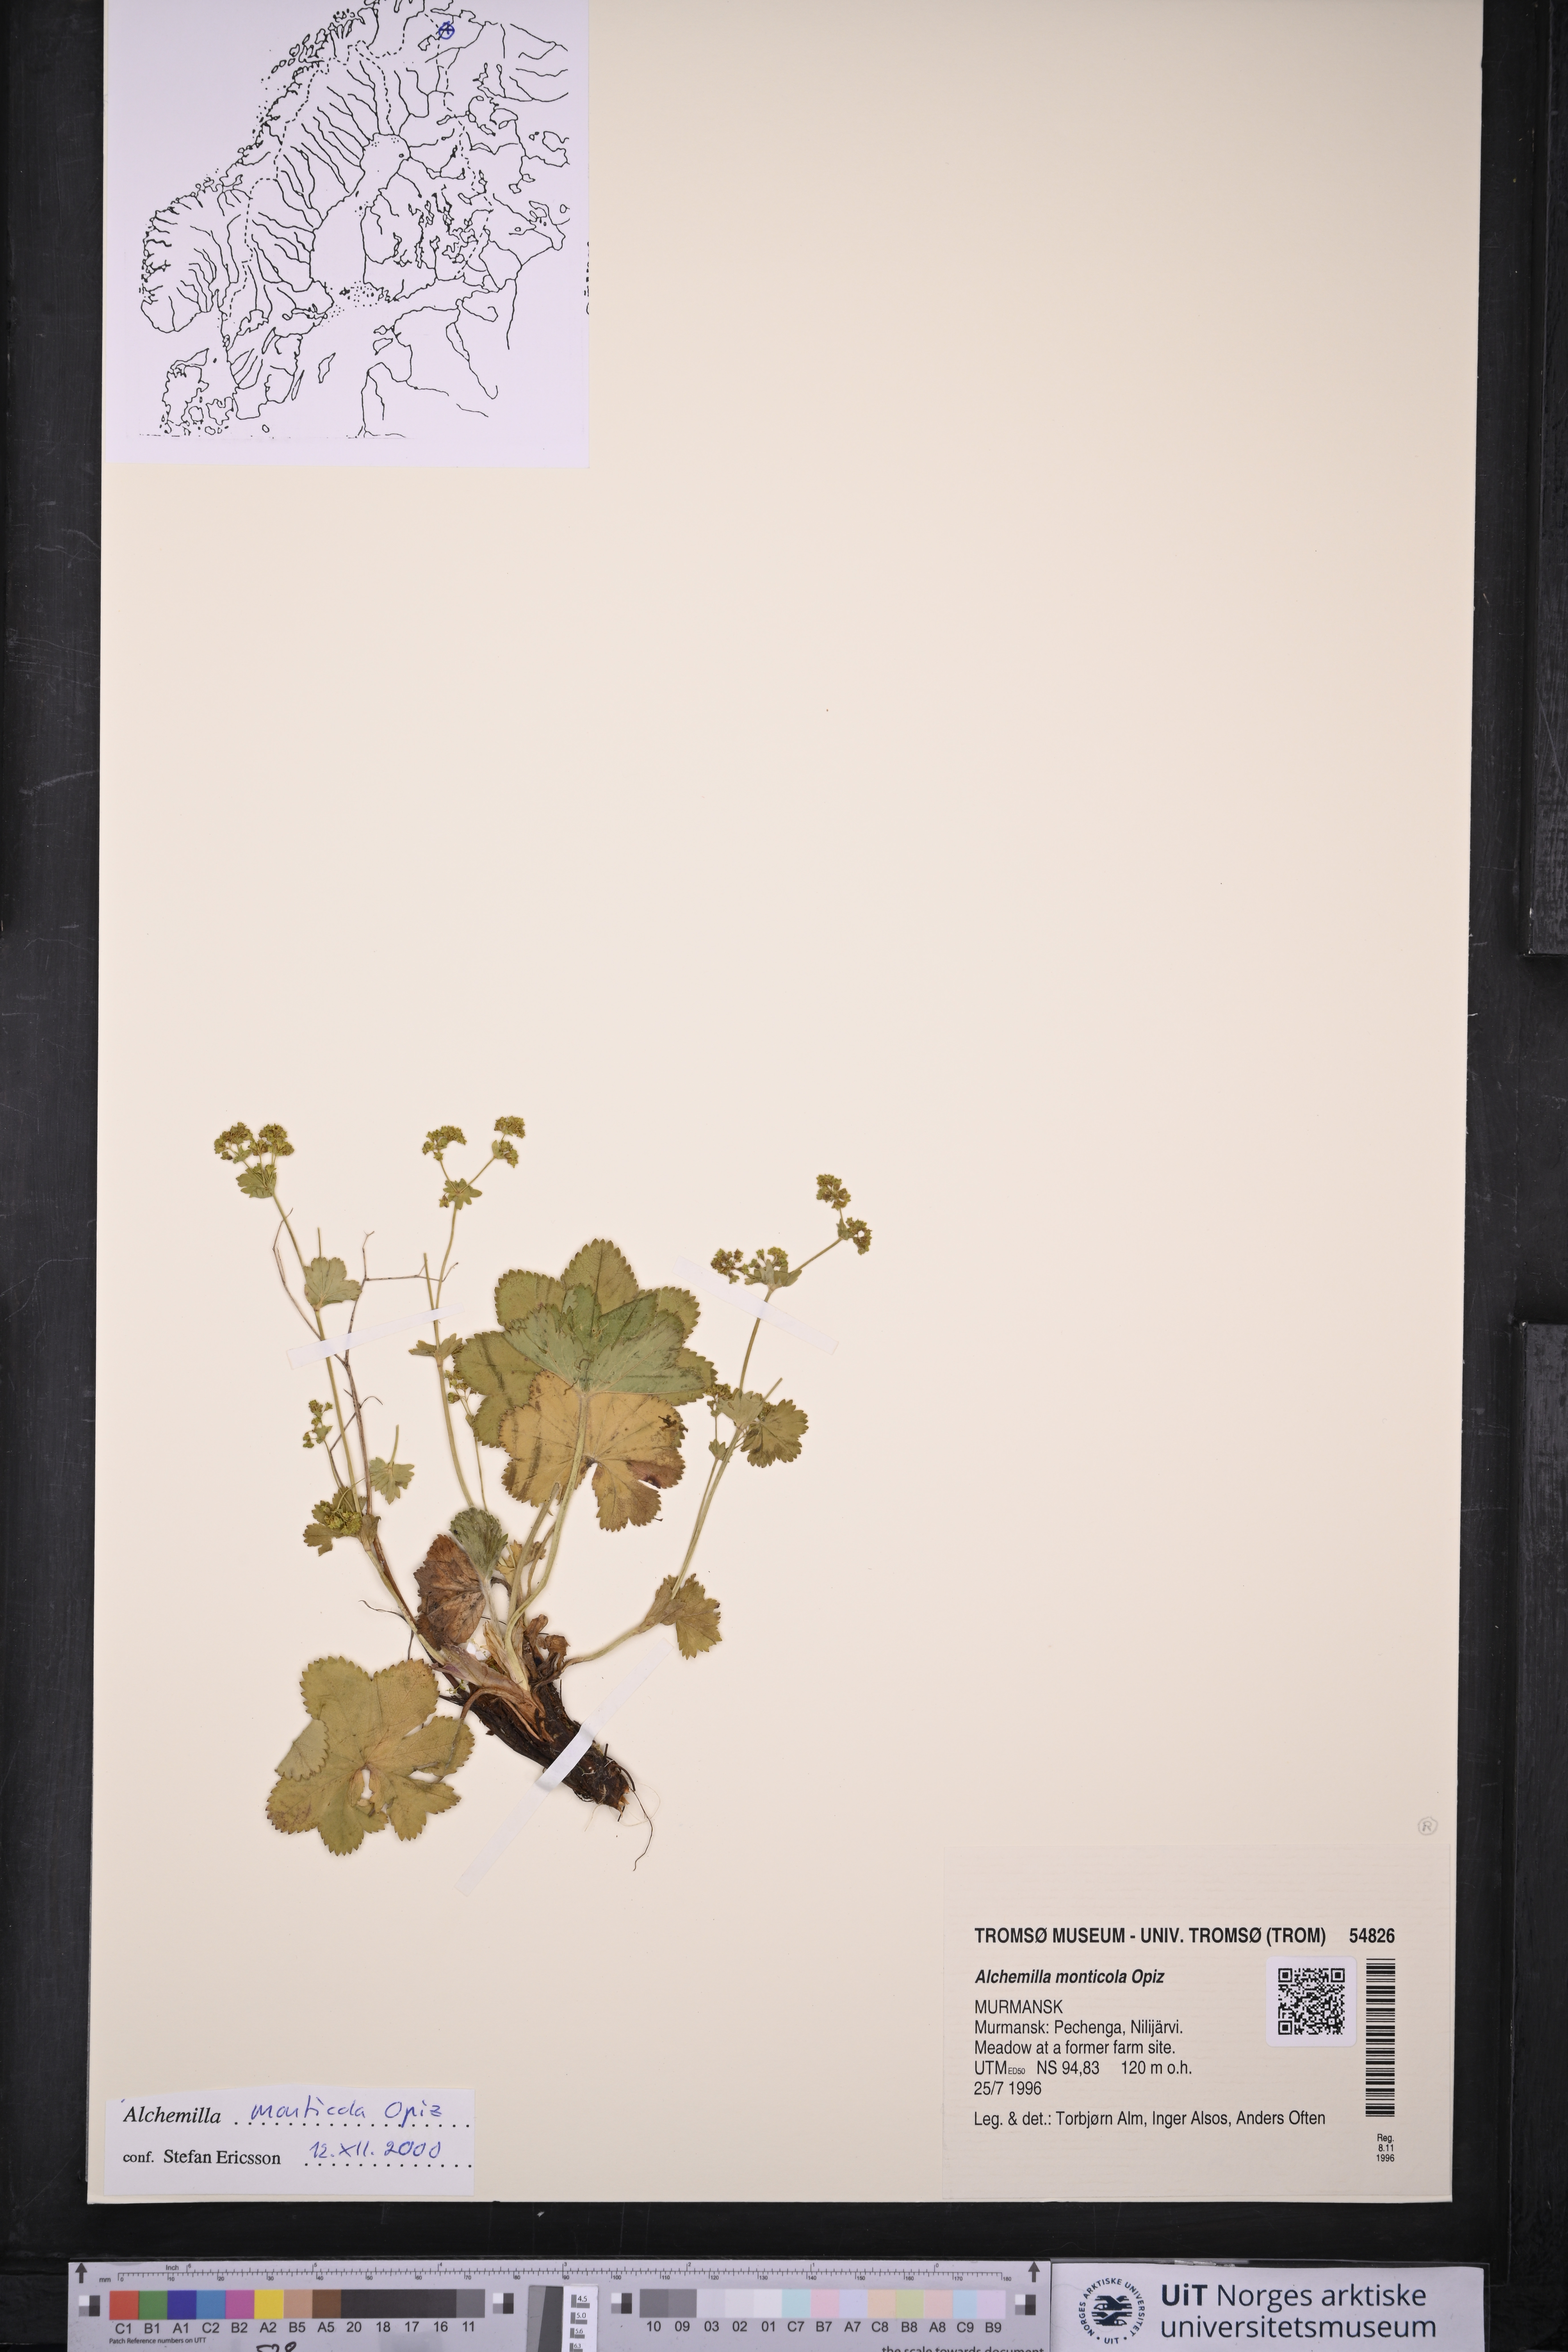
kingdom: Plantae
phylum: Tracheophyta
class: Magnoliopsida
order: Rosales
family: Rosaceae
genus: Alchemilla
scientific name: Alchemilla monticola
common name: Hairy lady's mantle
